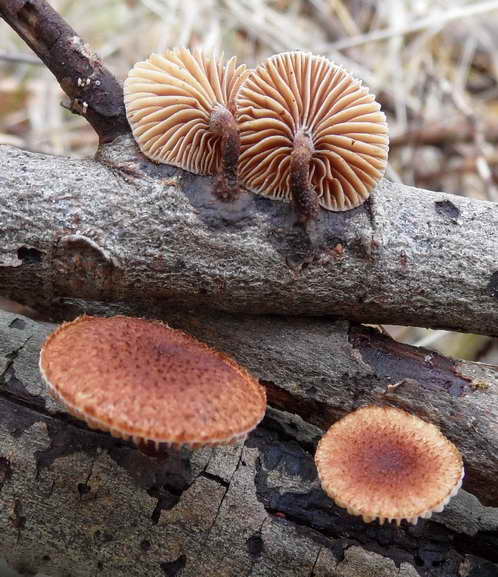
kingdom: Fungi
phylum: Basidiomycota
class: Agaricomycetes
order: Agaricales
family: Tubariaceae
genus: Phaeomarasmius
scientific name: Phaeomarasmius erinaceus
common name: spidsskælhat
